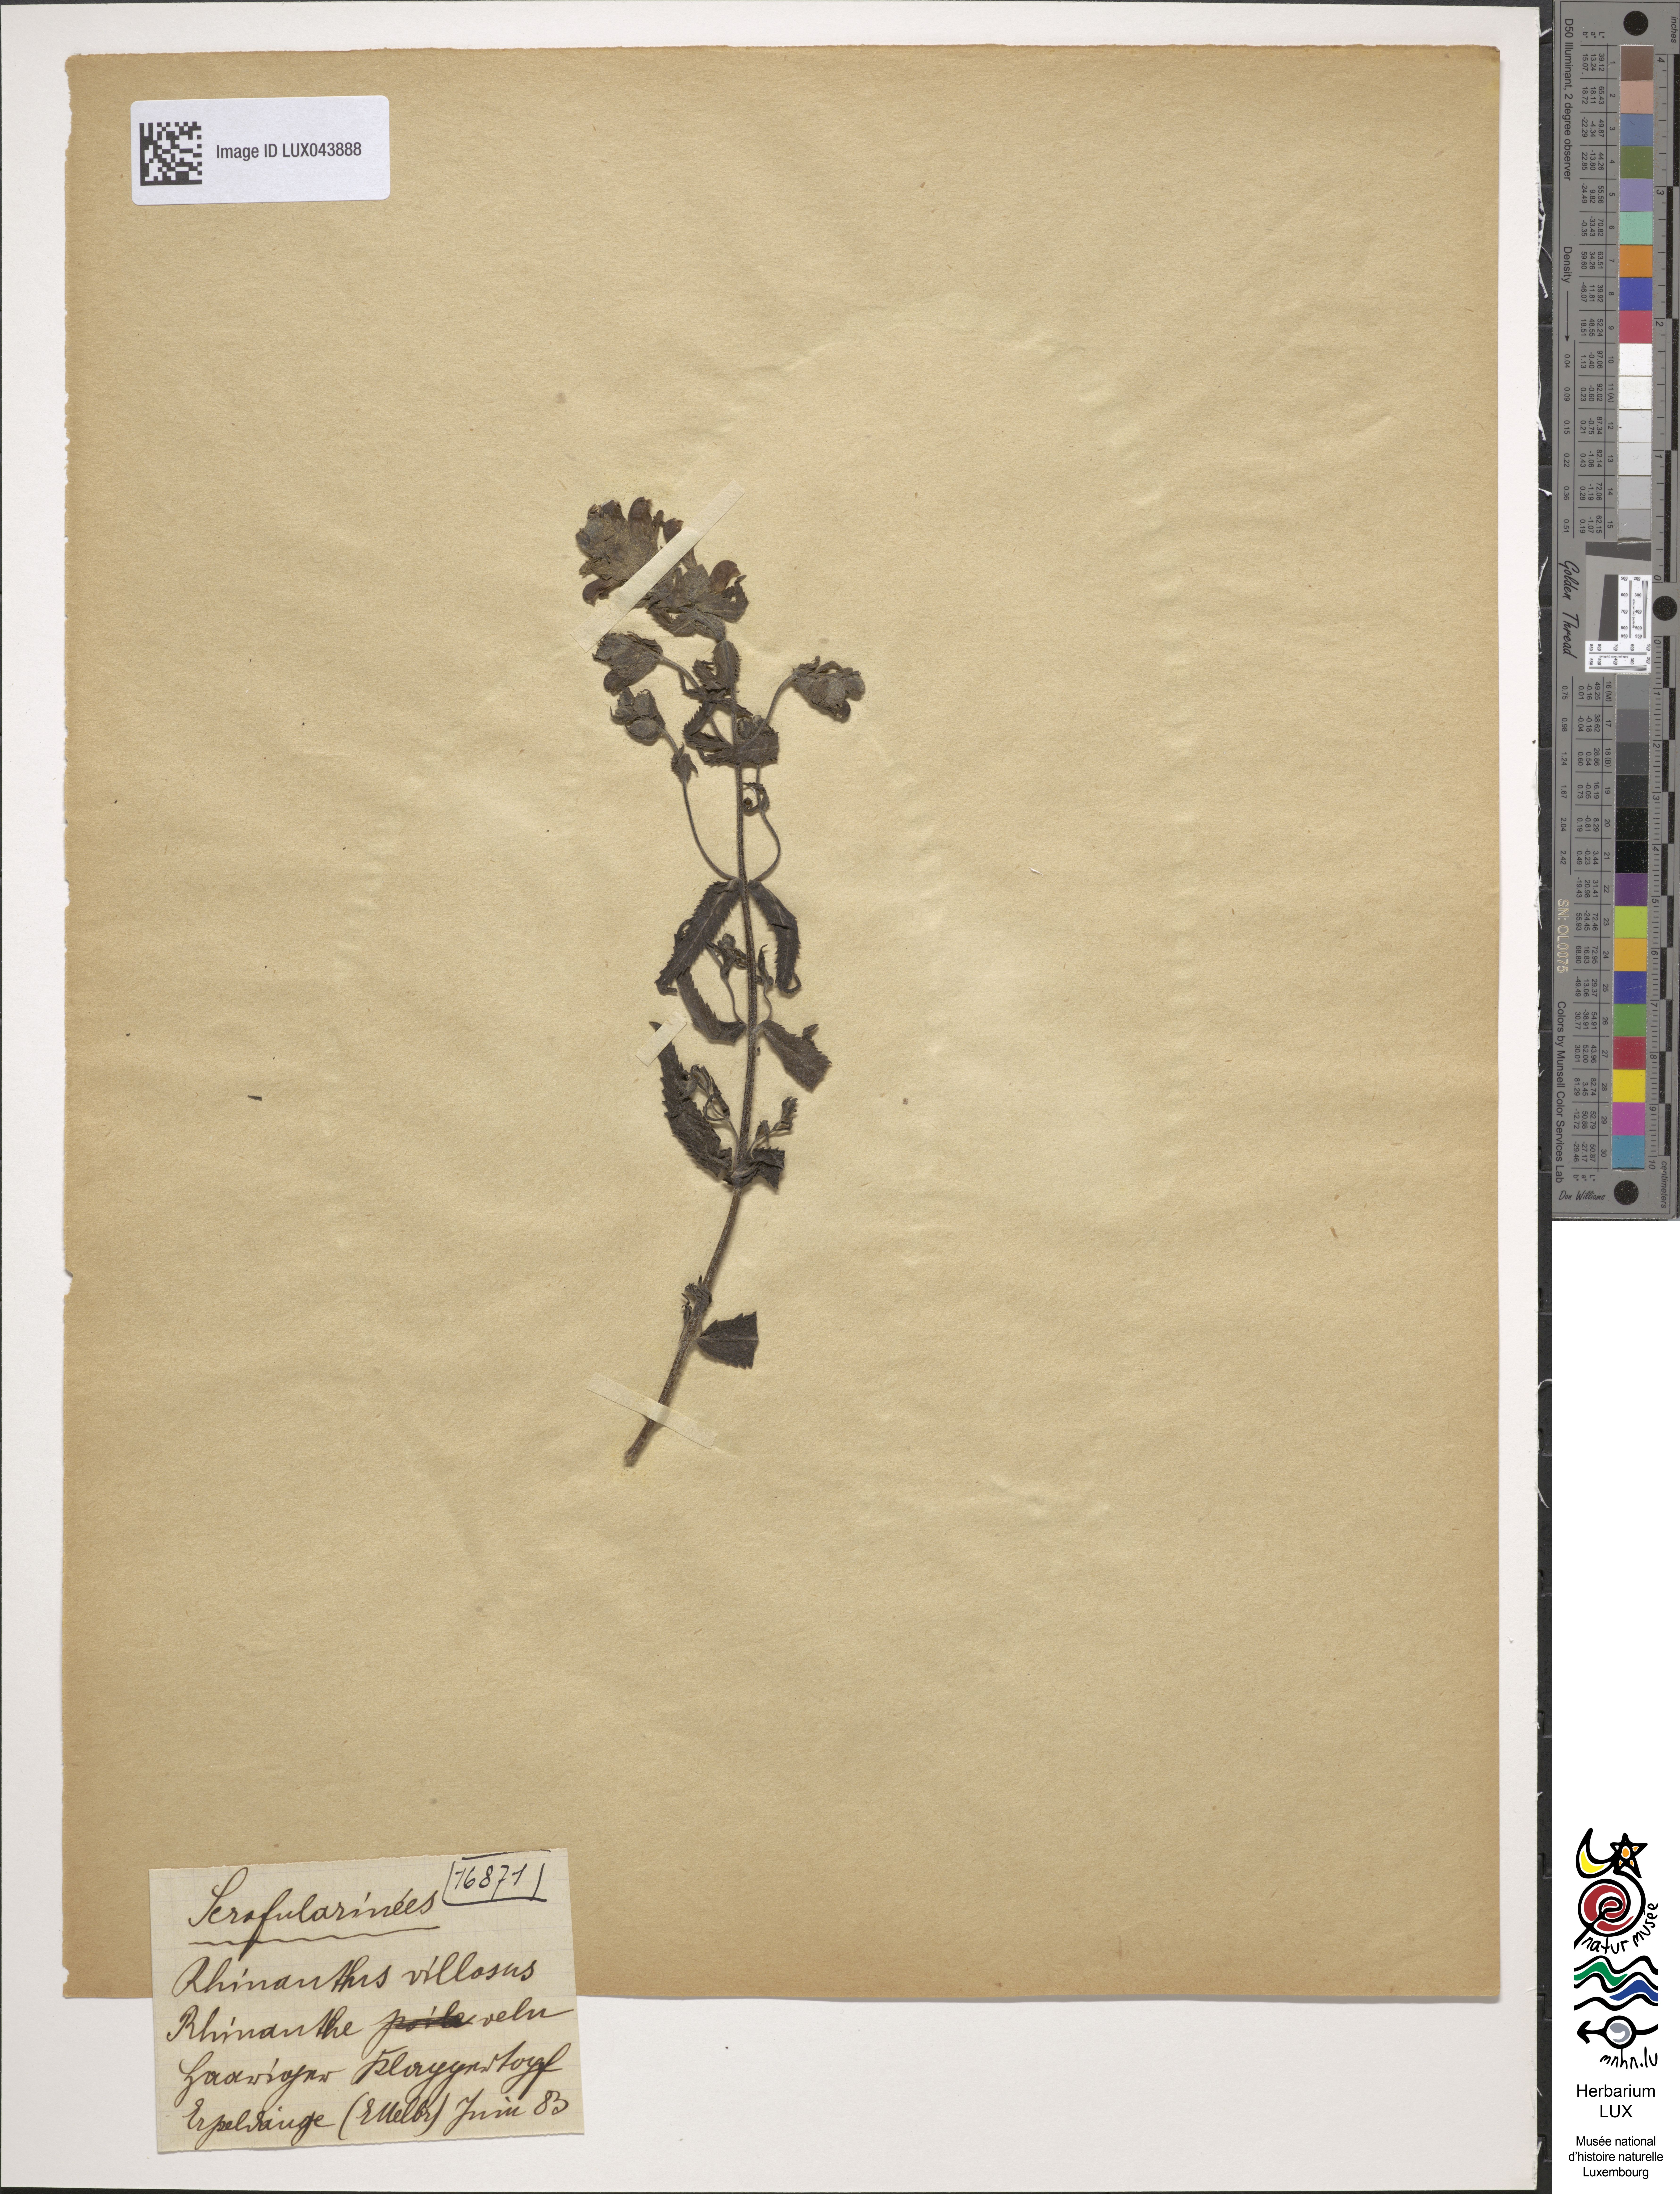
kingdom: Plantae
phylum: Tracheophyta
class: Magnoliopsida
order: Lamiales
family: Orobanchaceae
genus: Rhinanthus
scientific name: Rhinanthus alectorolophus
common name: Greater yellow-rattle
